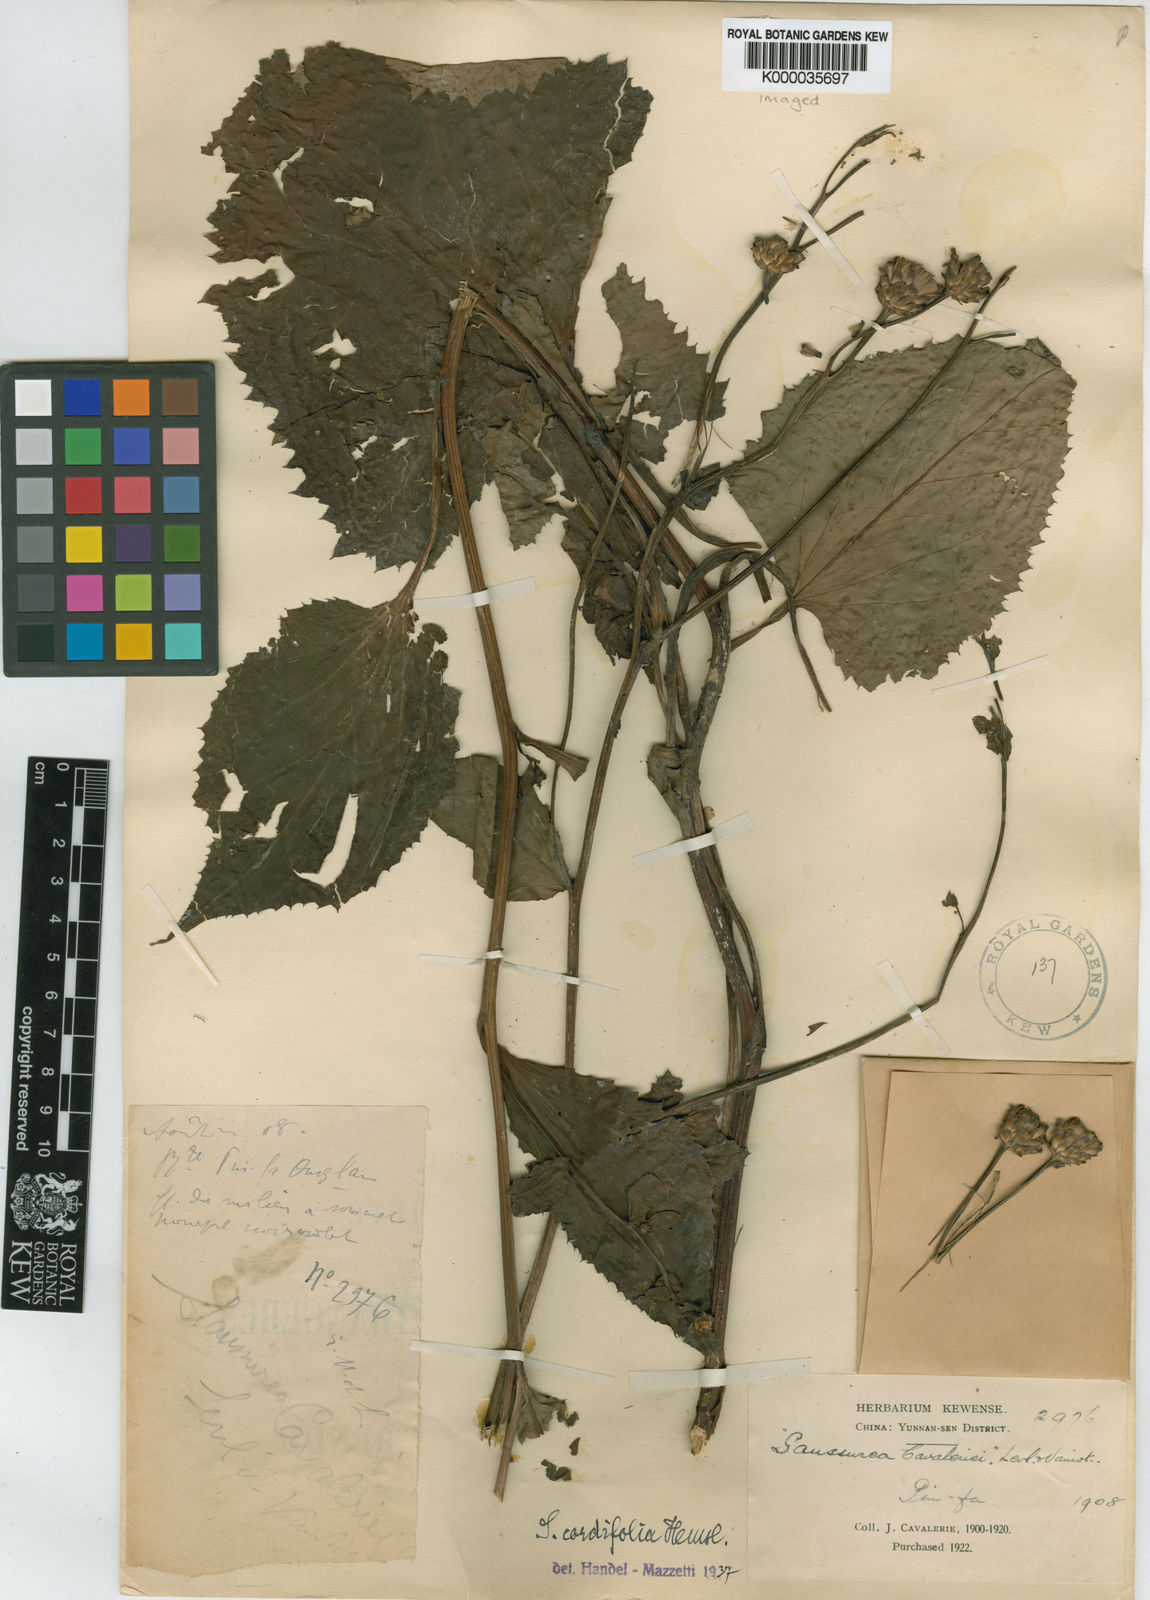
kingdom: Plantae
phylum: Tracheophyta
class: Magnoliopsida
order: Asterales
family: Asteraceae
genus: Saussurea
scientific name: Saussurea cordifolia
